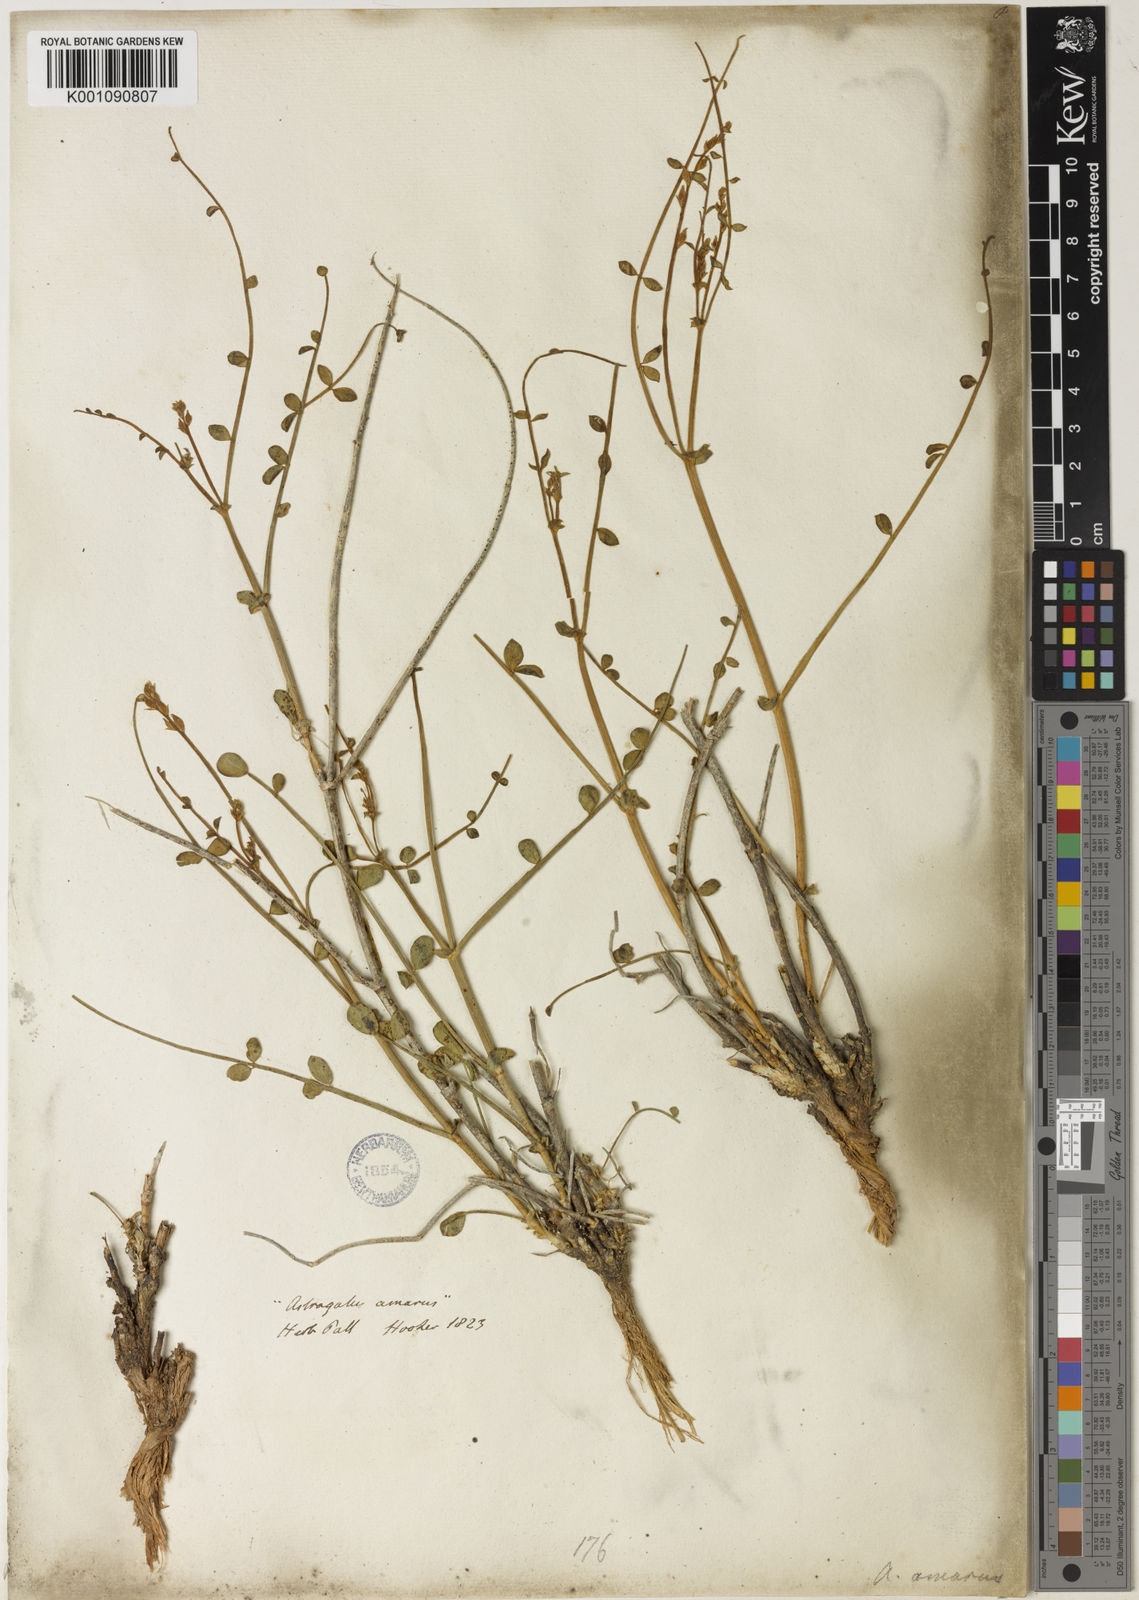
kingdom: Plantae
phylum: Tracheophyta
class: Magnoliopsida
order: Fabales
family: Fabaceae
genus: Astragalus
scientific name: Astragalus
